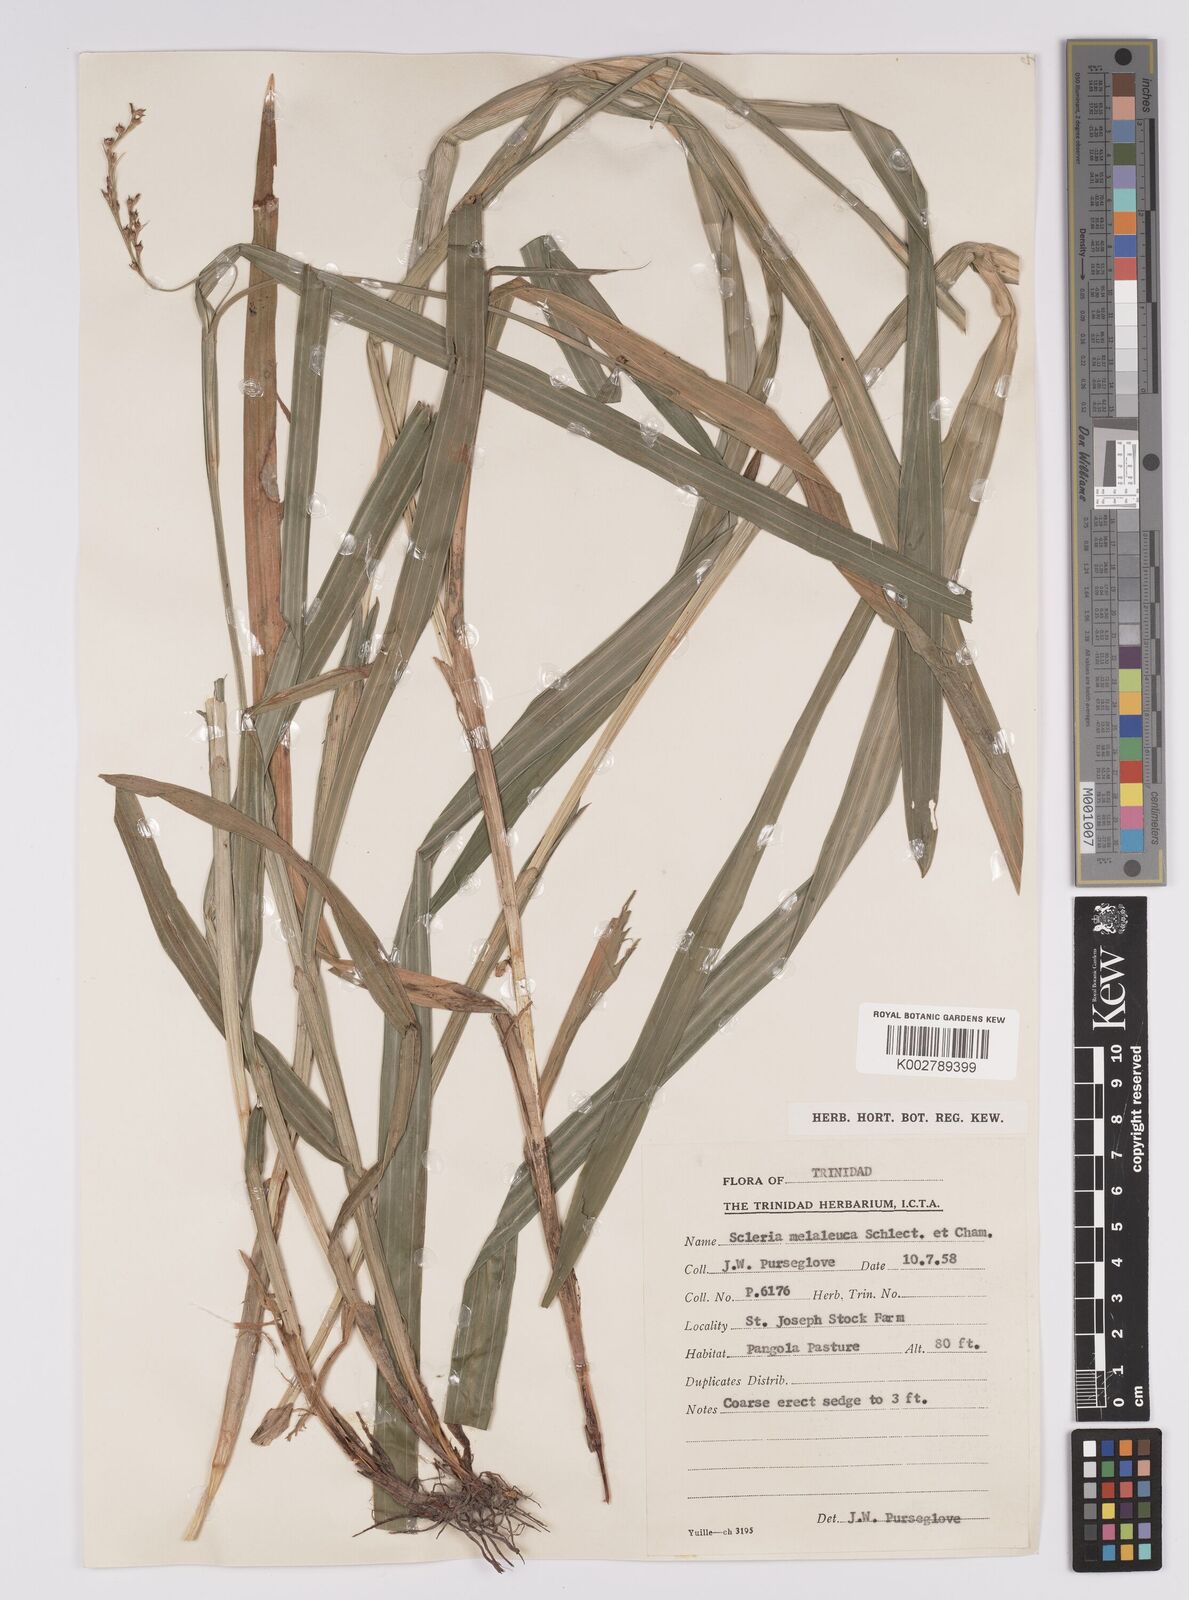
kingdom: Plantae
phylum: Tracheophyta
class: Liliopsida
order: Poales
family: Cyperaceae
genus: Scleria
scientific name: Scleria gaertneri
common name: Cortadera blanca
